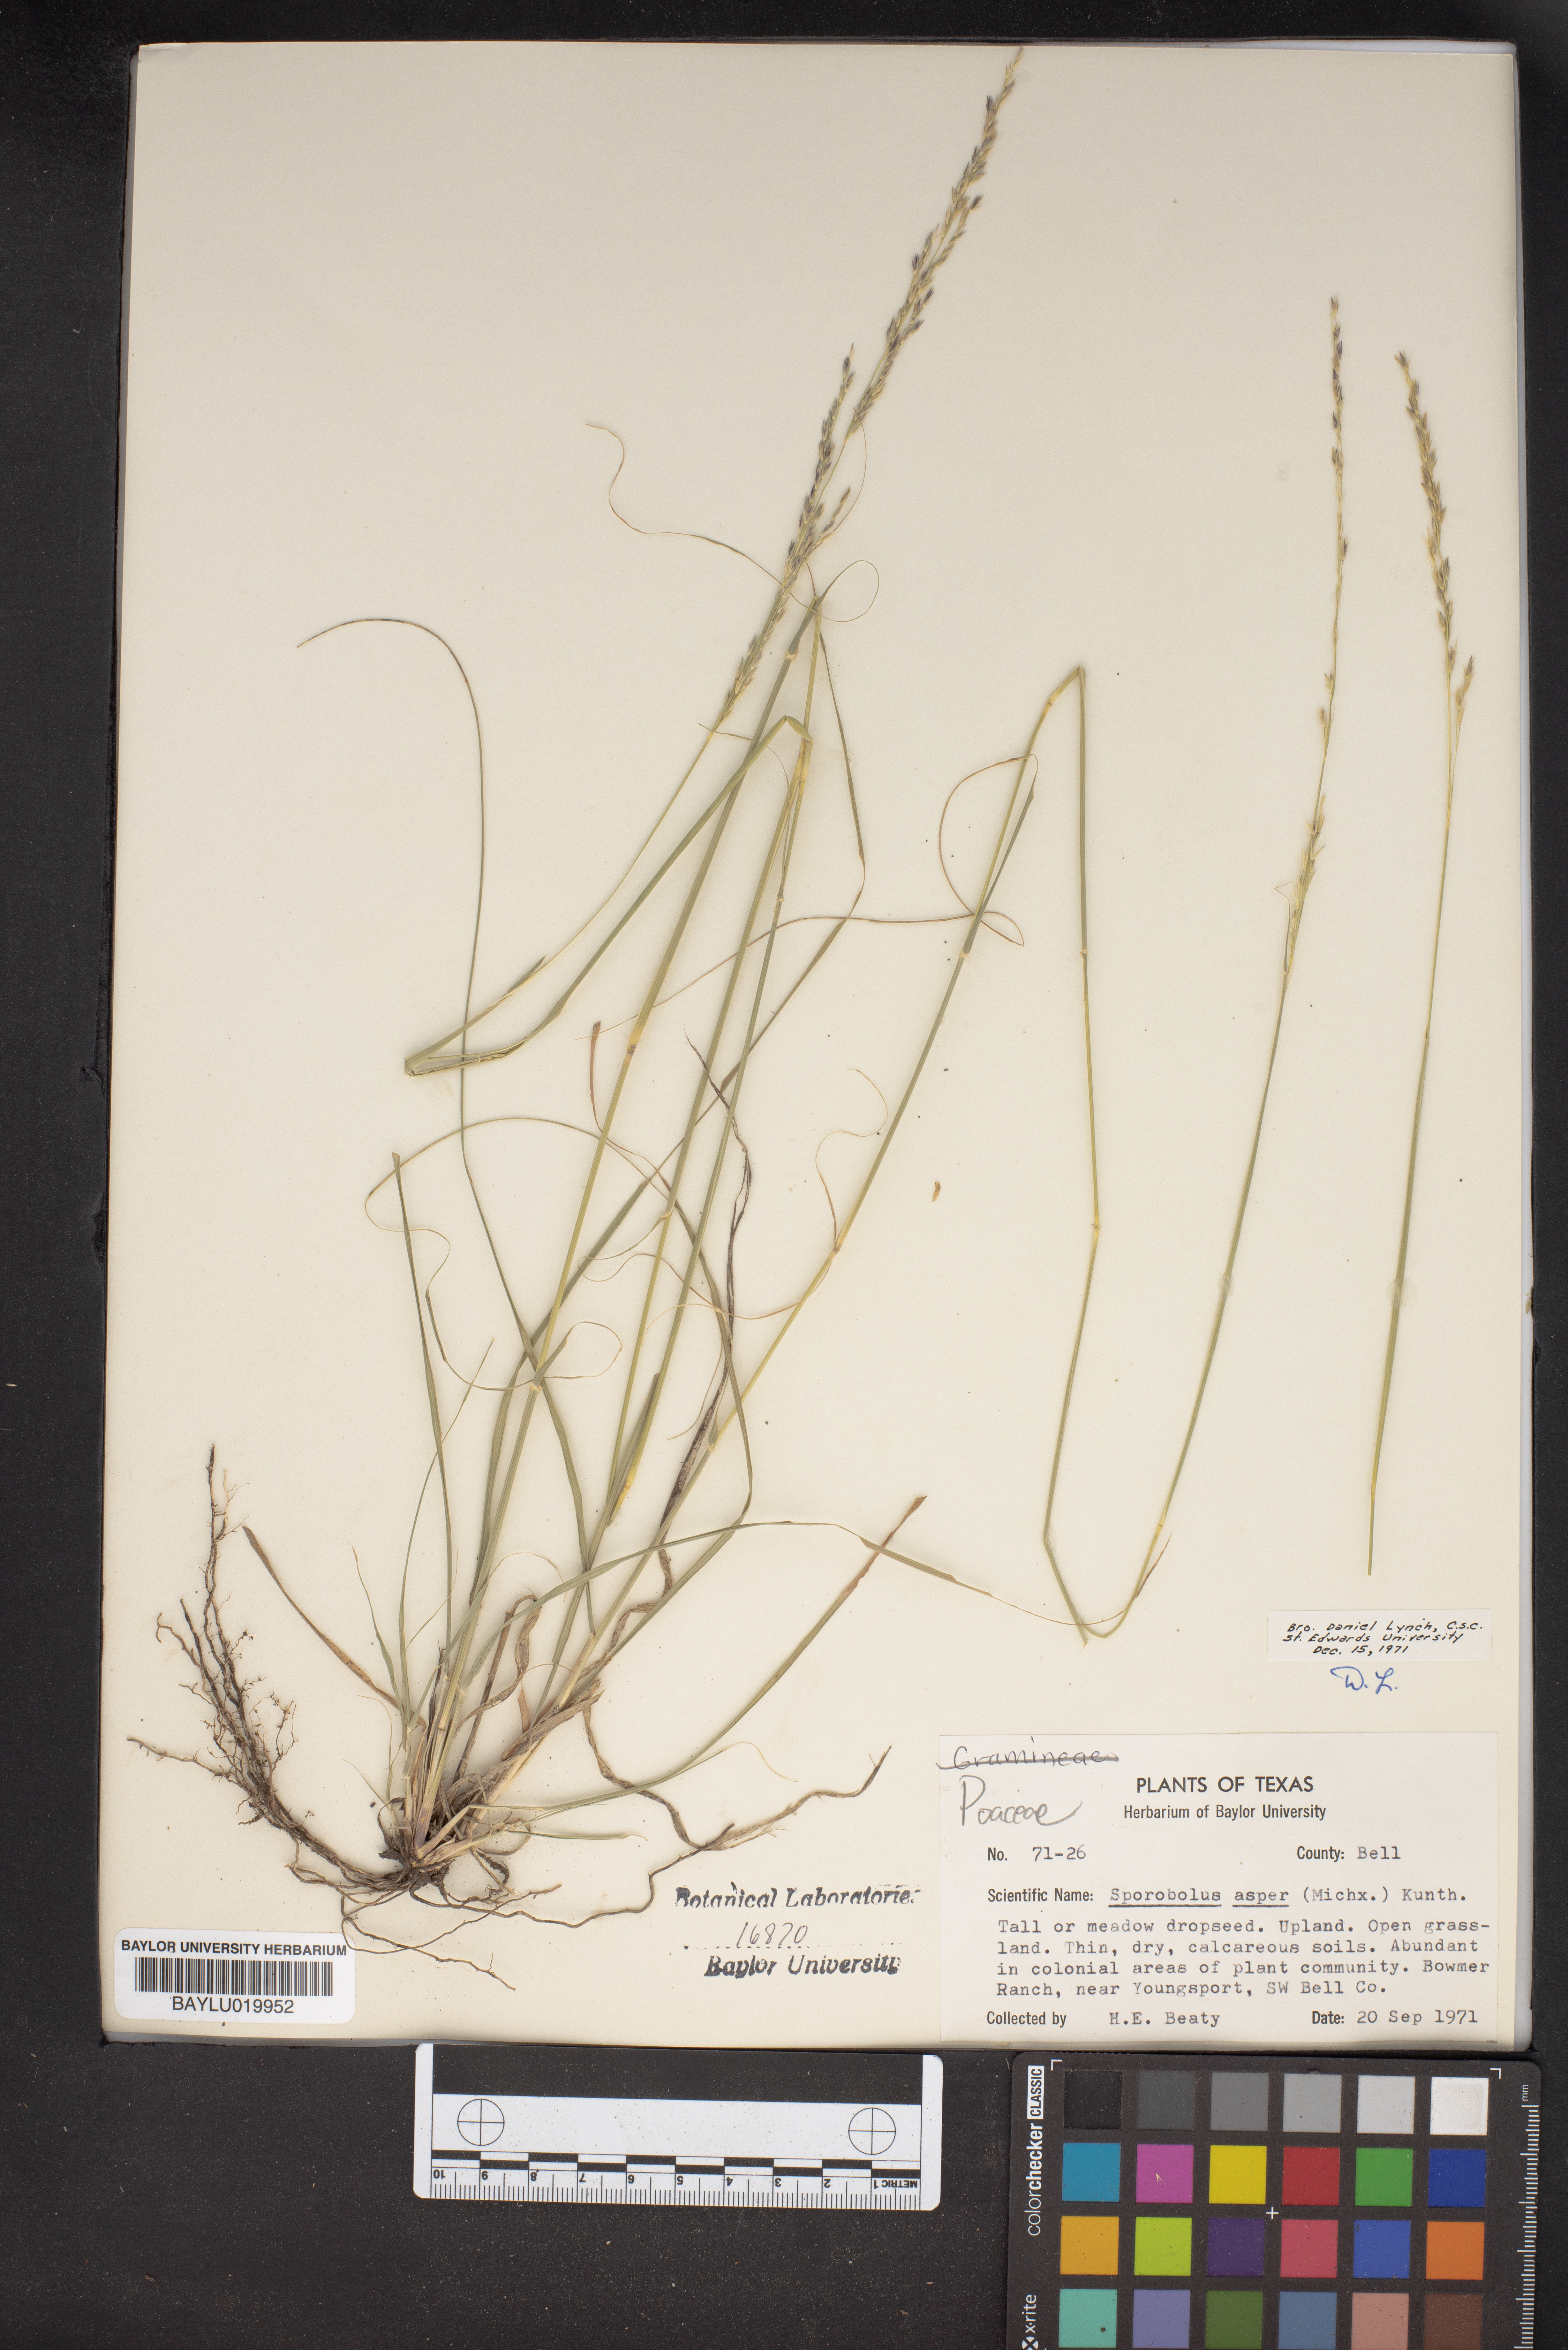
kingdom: Plantae
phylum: Tracheophyta
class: Liliopsida
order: Poales
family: Poaceae
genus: Sporobolus
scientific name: Sporobolus compositus
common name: Rough dropseed
